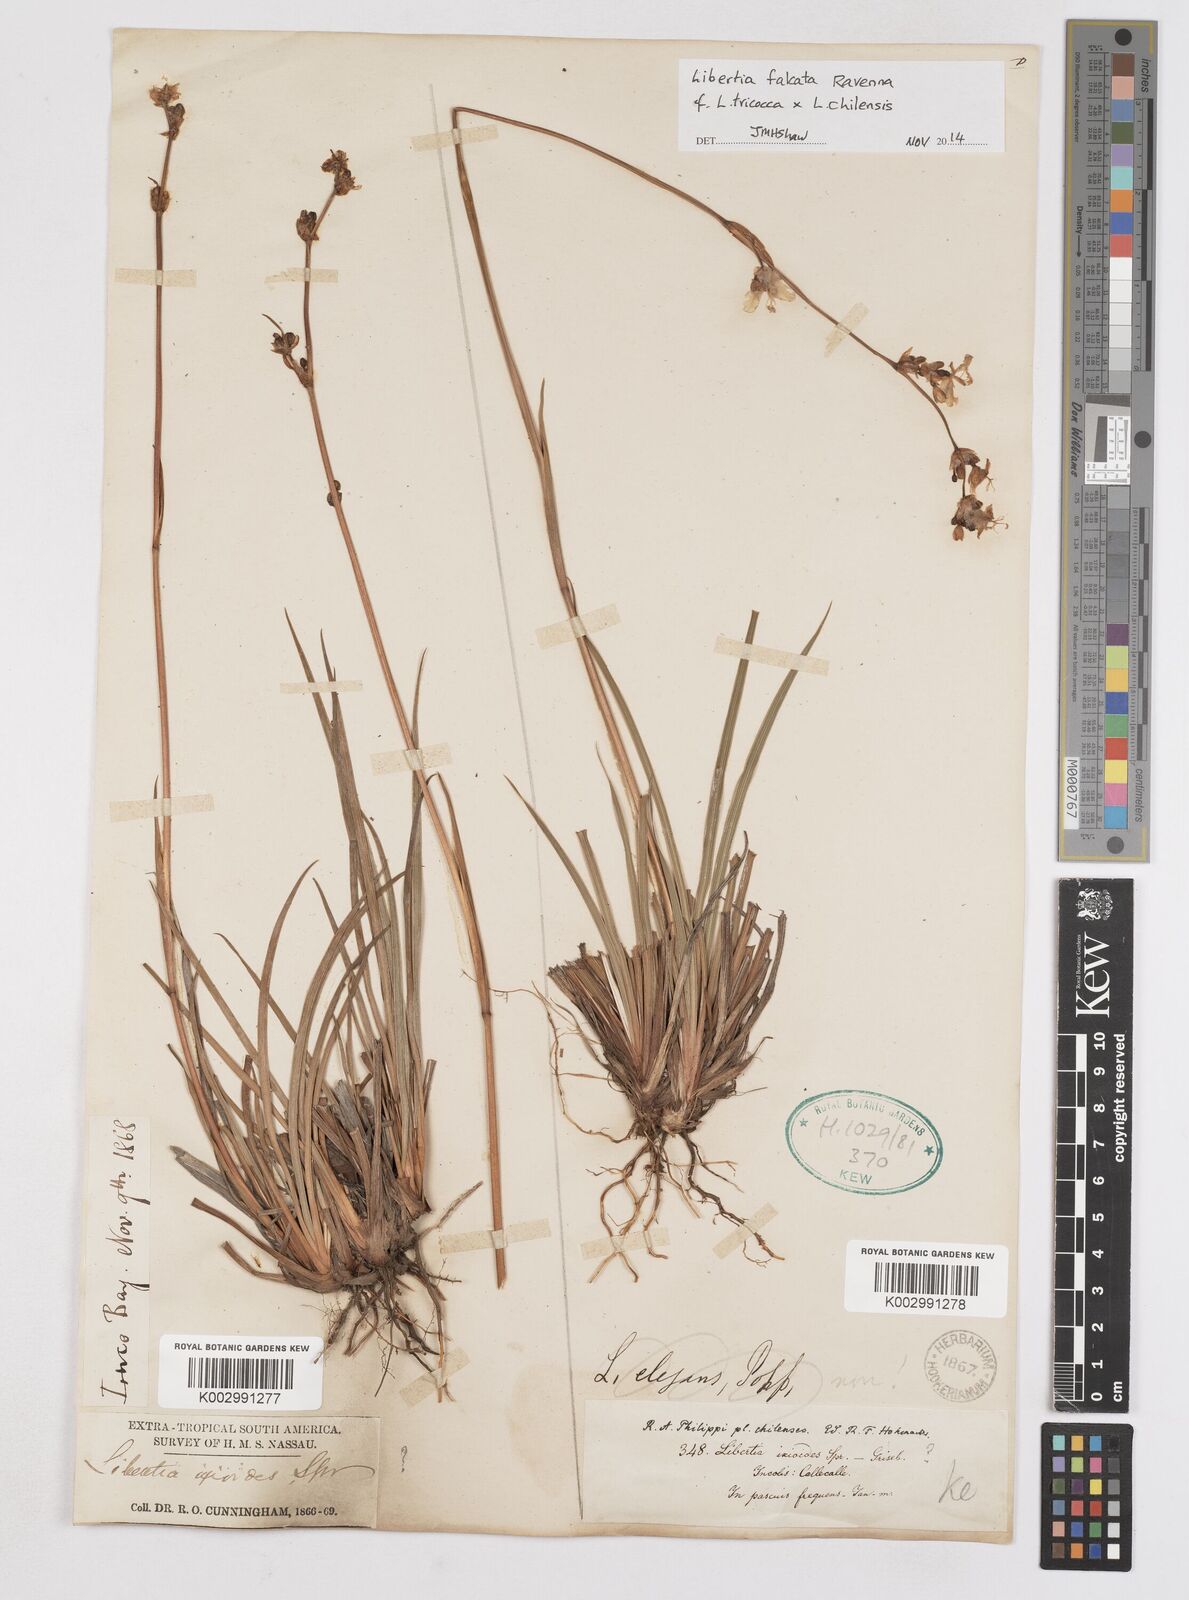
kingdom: Plantae
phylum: Tracheophyta
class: Liliopsida
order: Asparagales
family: Iridaceae
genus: Libertia
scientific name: Libertia ixioides
